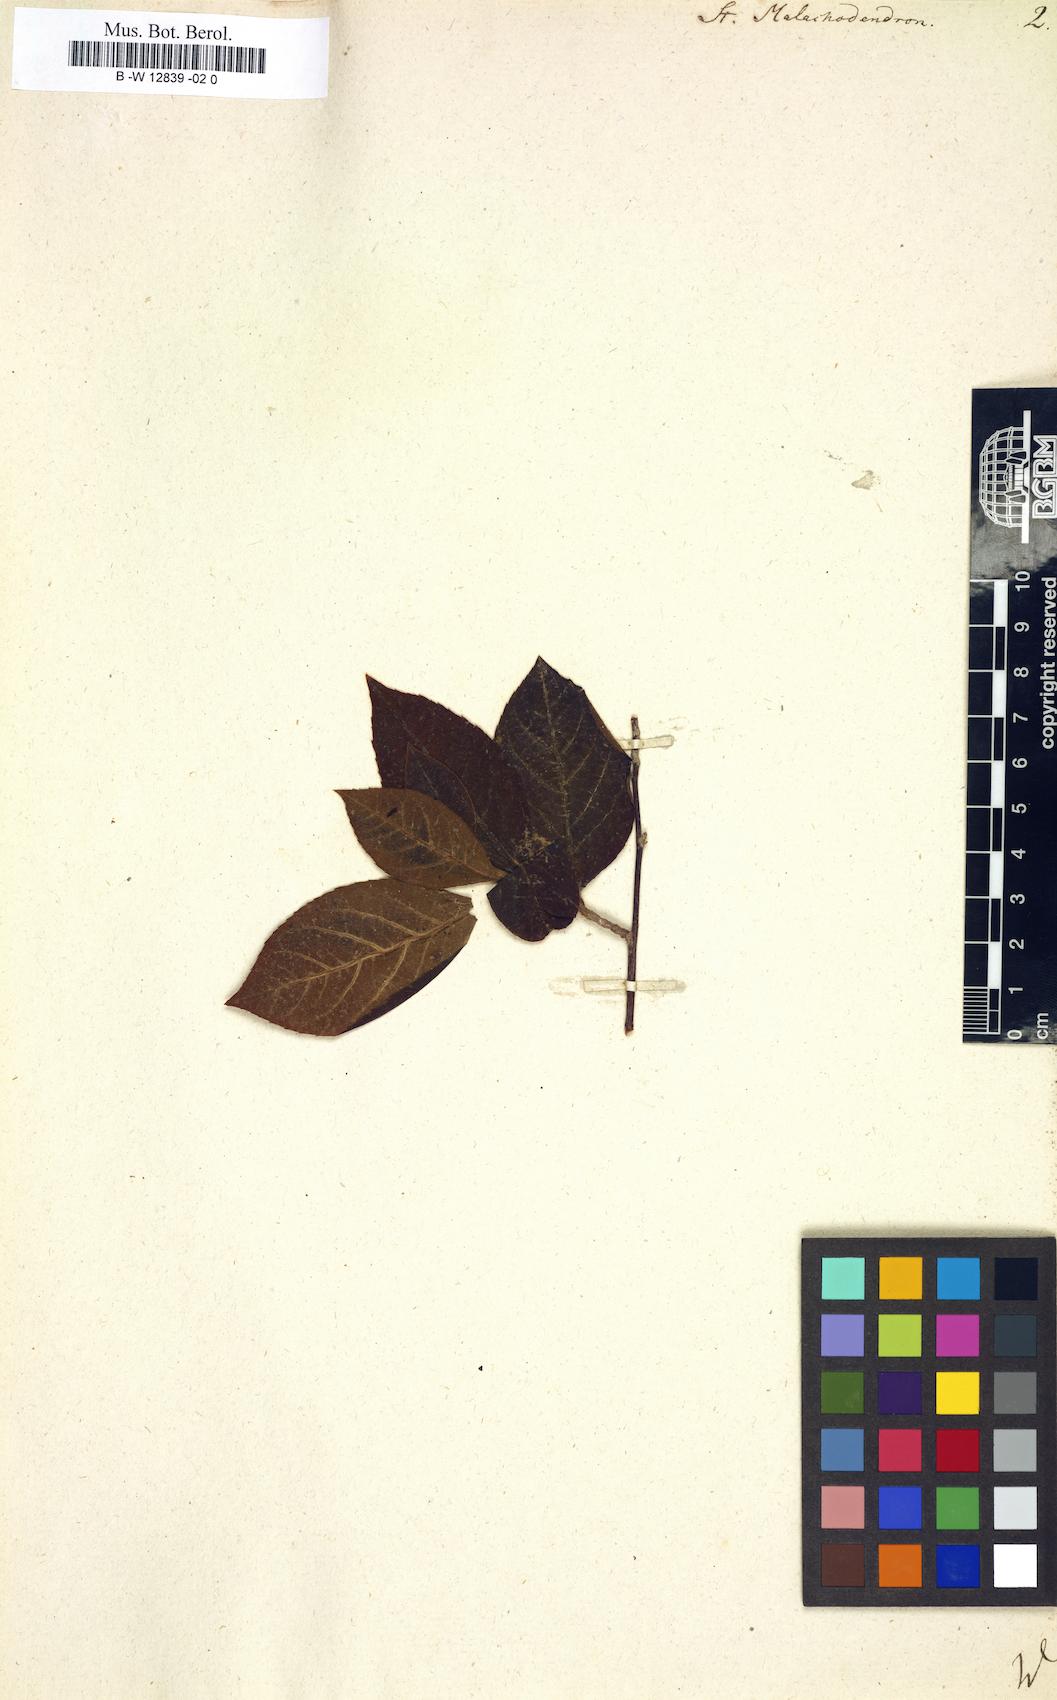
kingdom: Plantae
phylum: Tracheophyta
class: Magnoliopsida
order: Ericales
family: Theaceae
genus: Stuartia
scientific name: Stuartia
